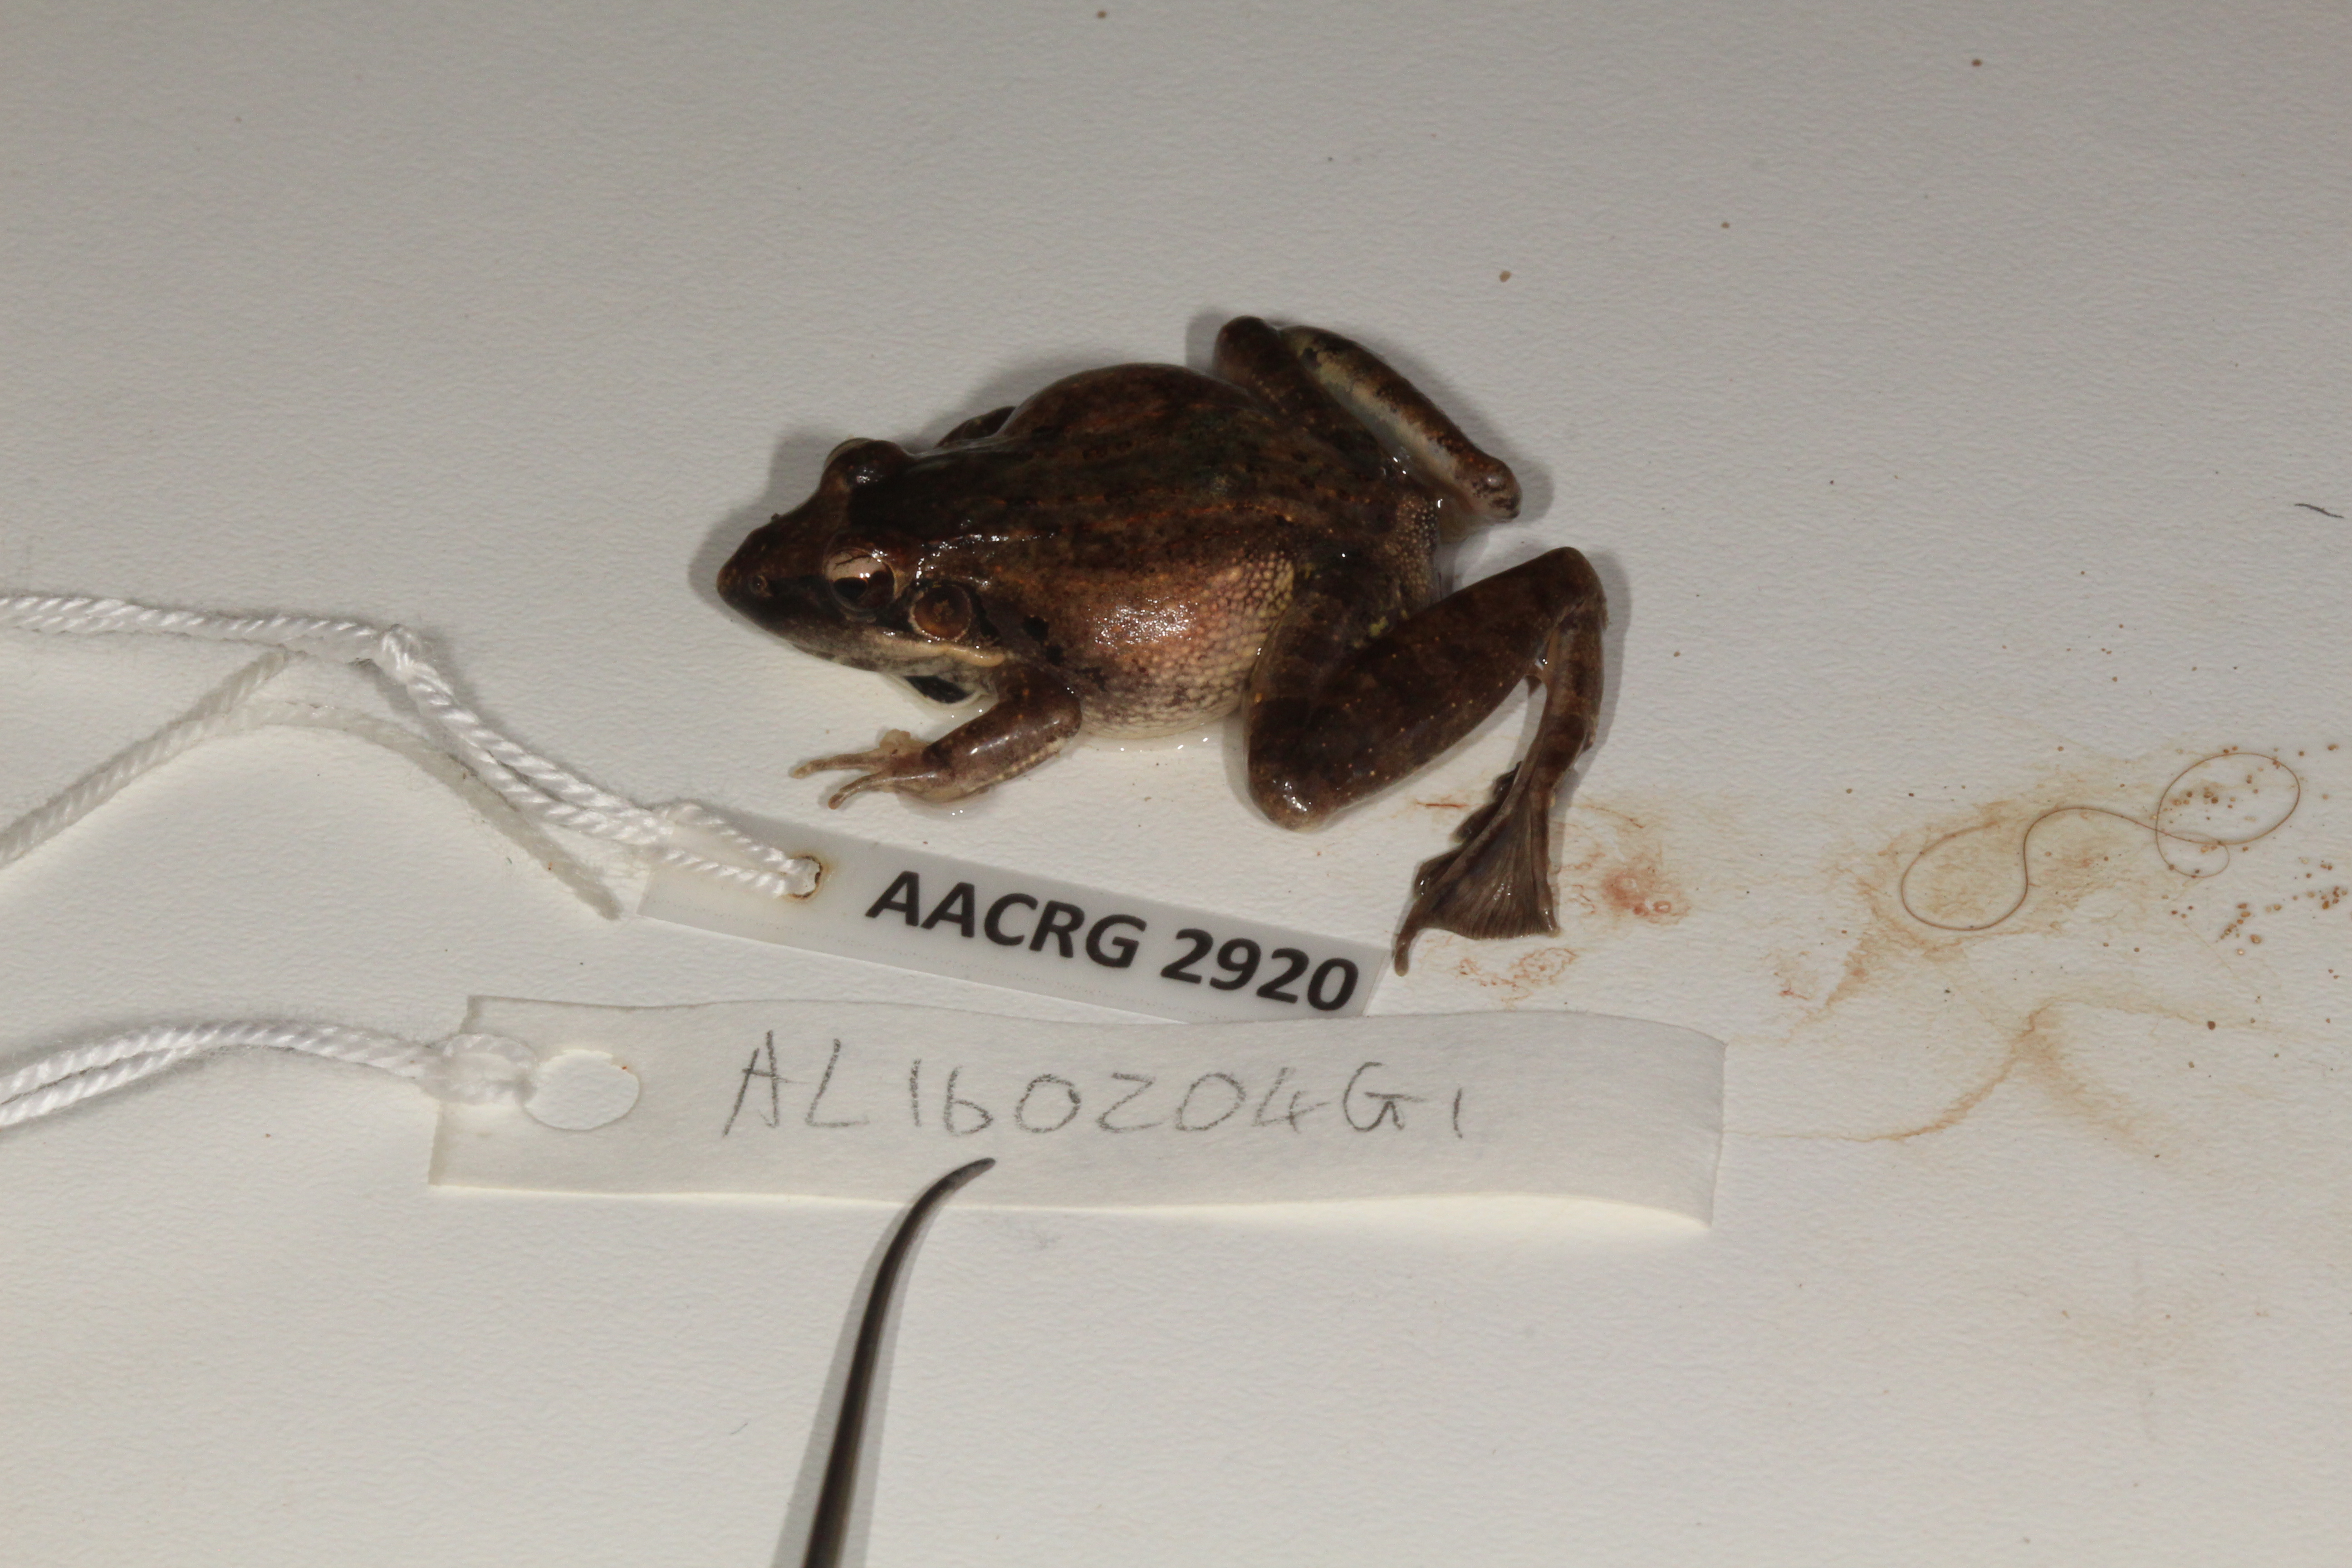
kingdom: Animalia
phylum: Chordata
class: Amphibia
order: Anura
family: Ptychadenidae
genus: Ptychadena
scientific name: Ptychadena anchietae
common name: Anchieta's ridged frog
